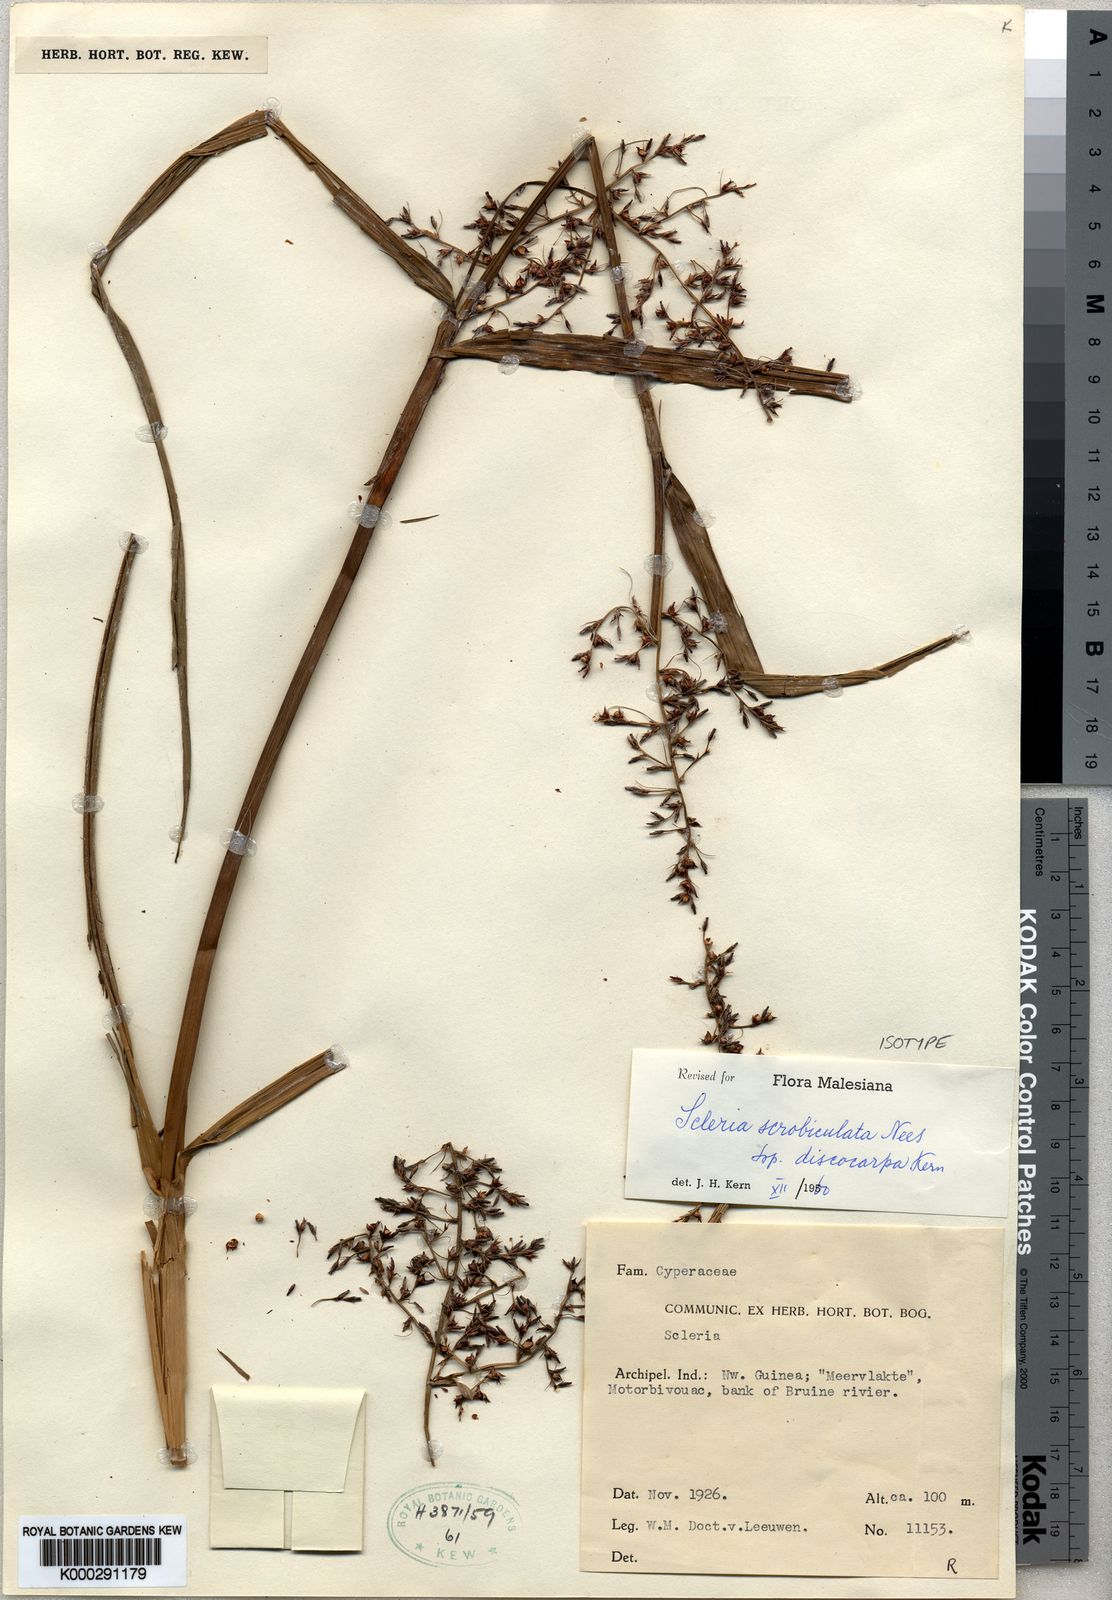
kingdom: Plantae
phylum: Tracheophyta
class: Liliopsida
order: Poales
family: Cyperaceae
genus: Scleria
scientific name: Scleria scrobiculata
